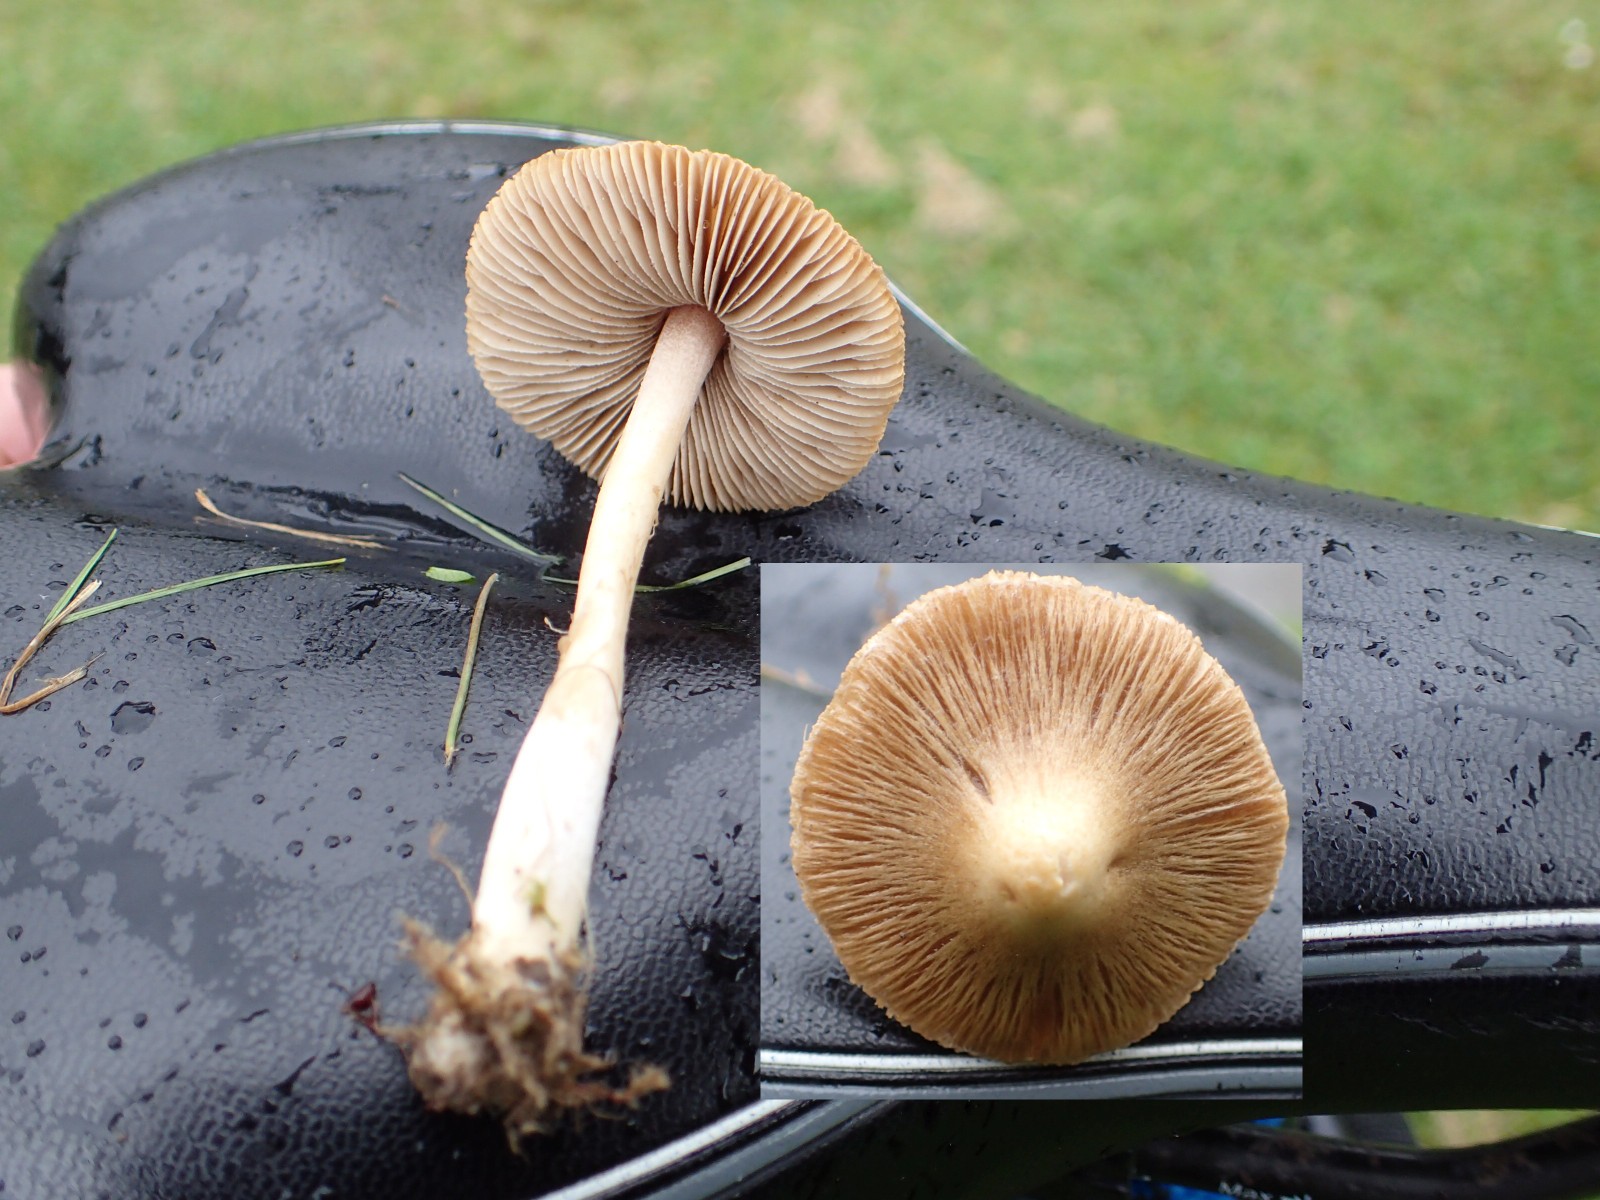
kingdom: Fungi
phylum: Basidiomycota
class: Agaricomycetes
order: Agaricales
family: Inocybaceae
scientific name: Inocybaceae
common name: trævlhatfamilien
